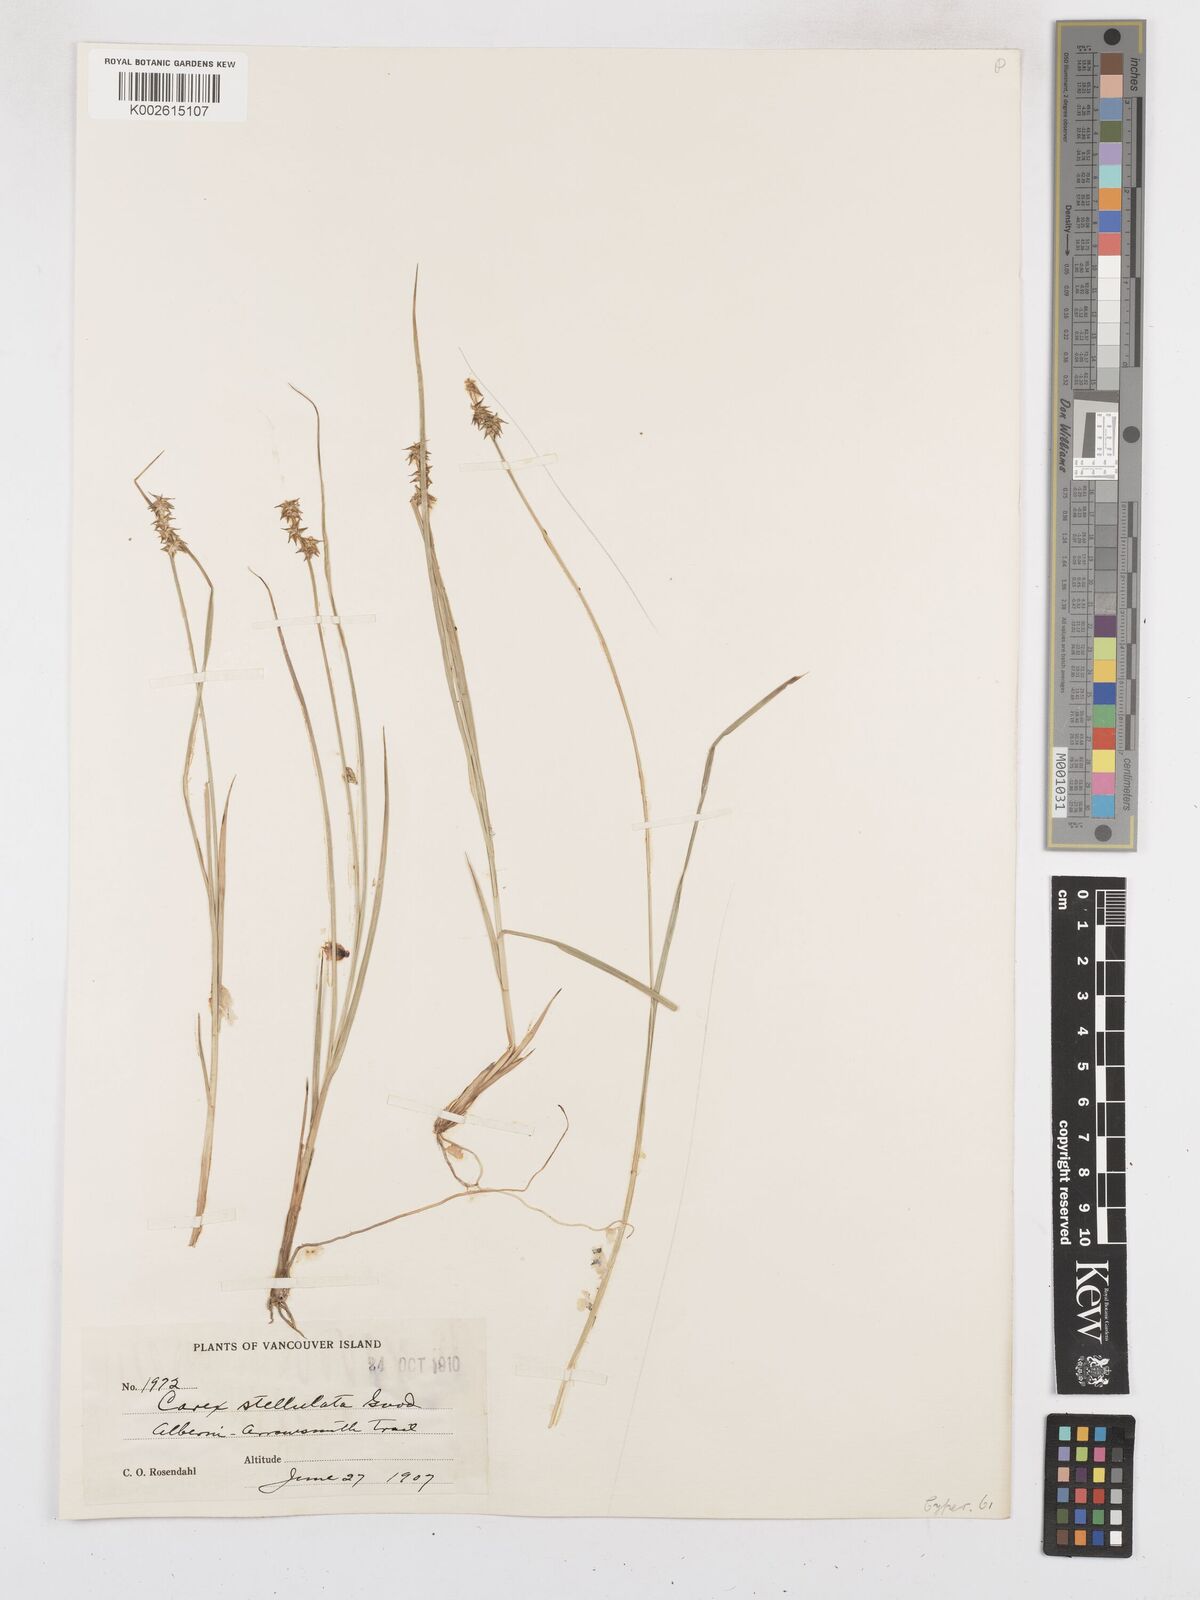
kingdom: Plantae
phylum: Tracheophyta
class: Liliopsida
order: Poales
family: Cyperaceae
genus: Carex
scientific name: Carex echinata
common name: Star sedge
